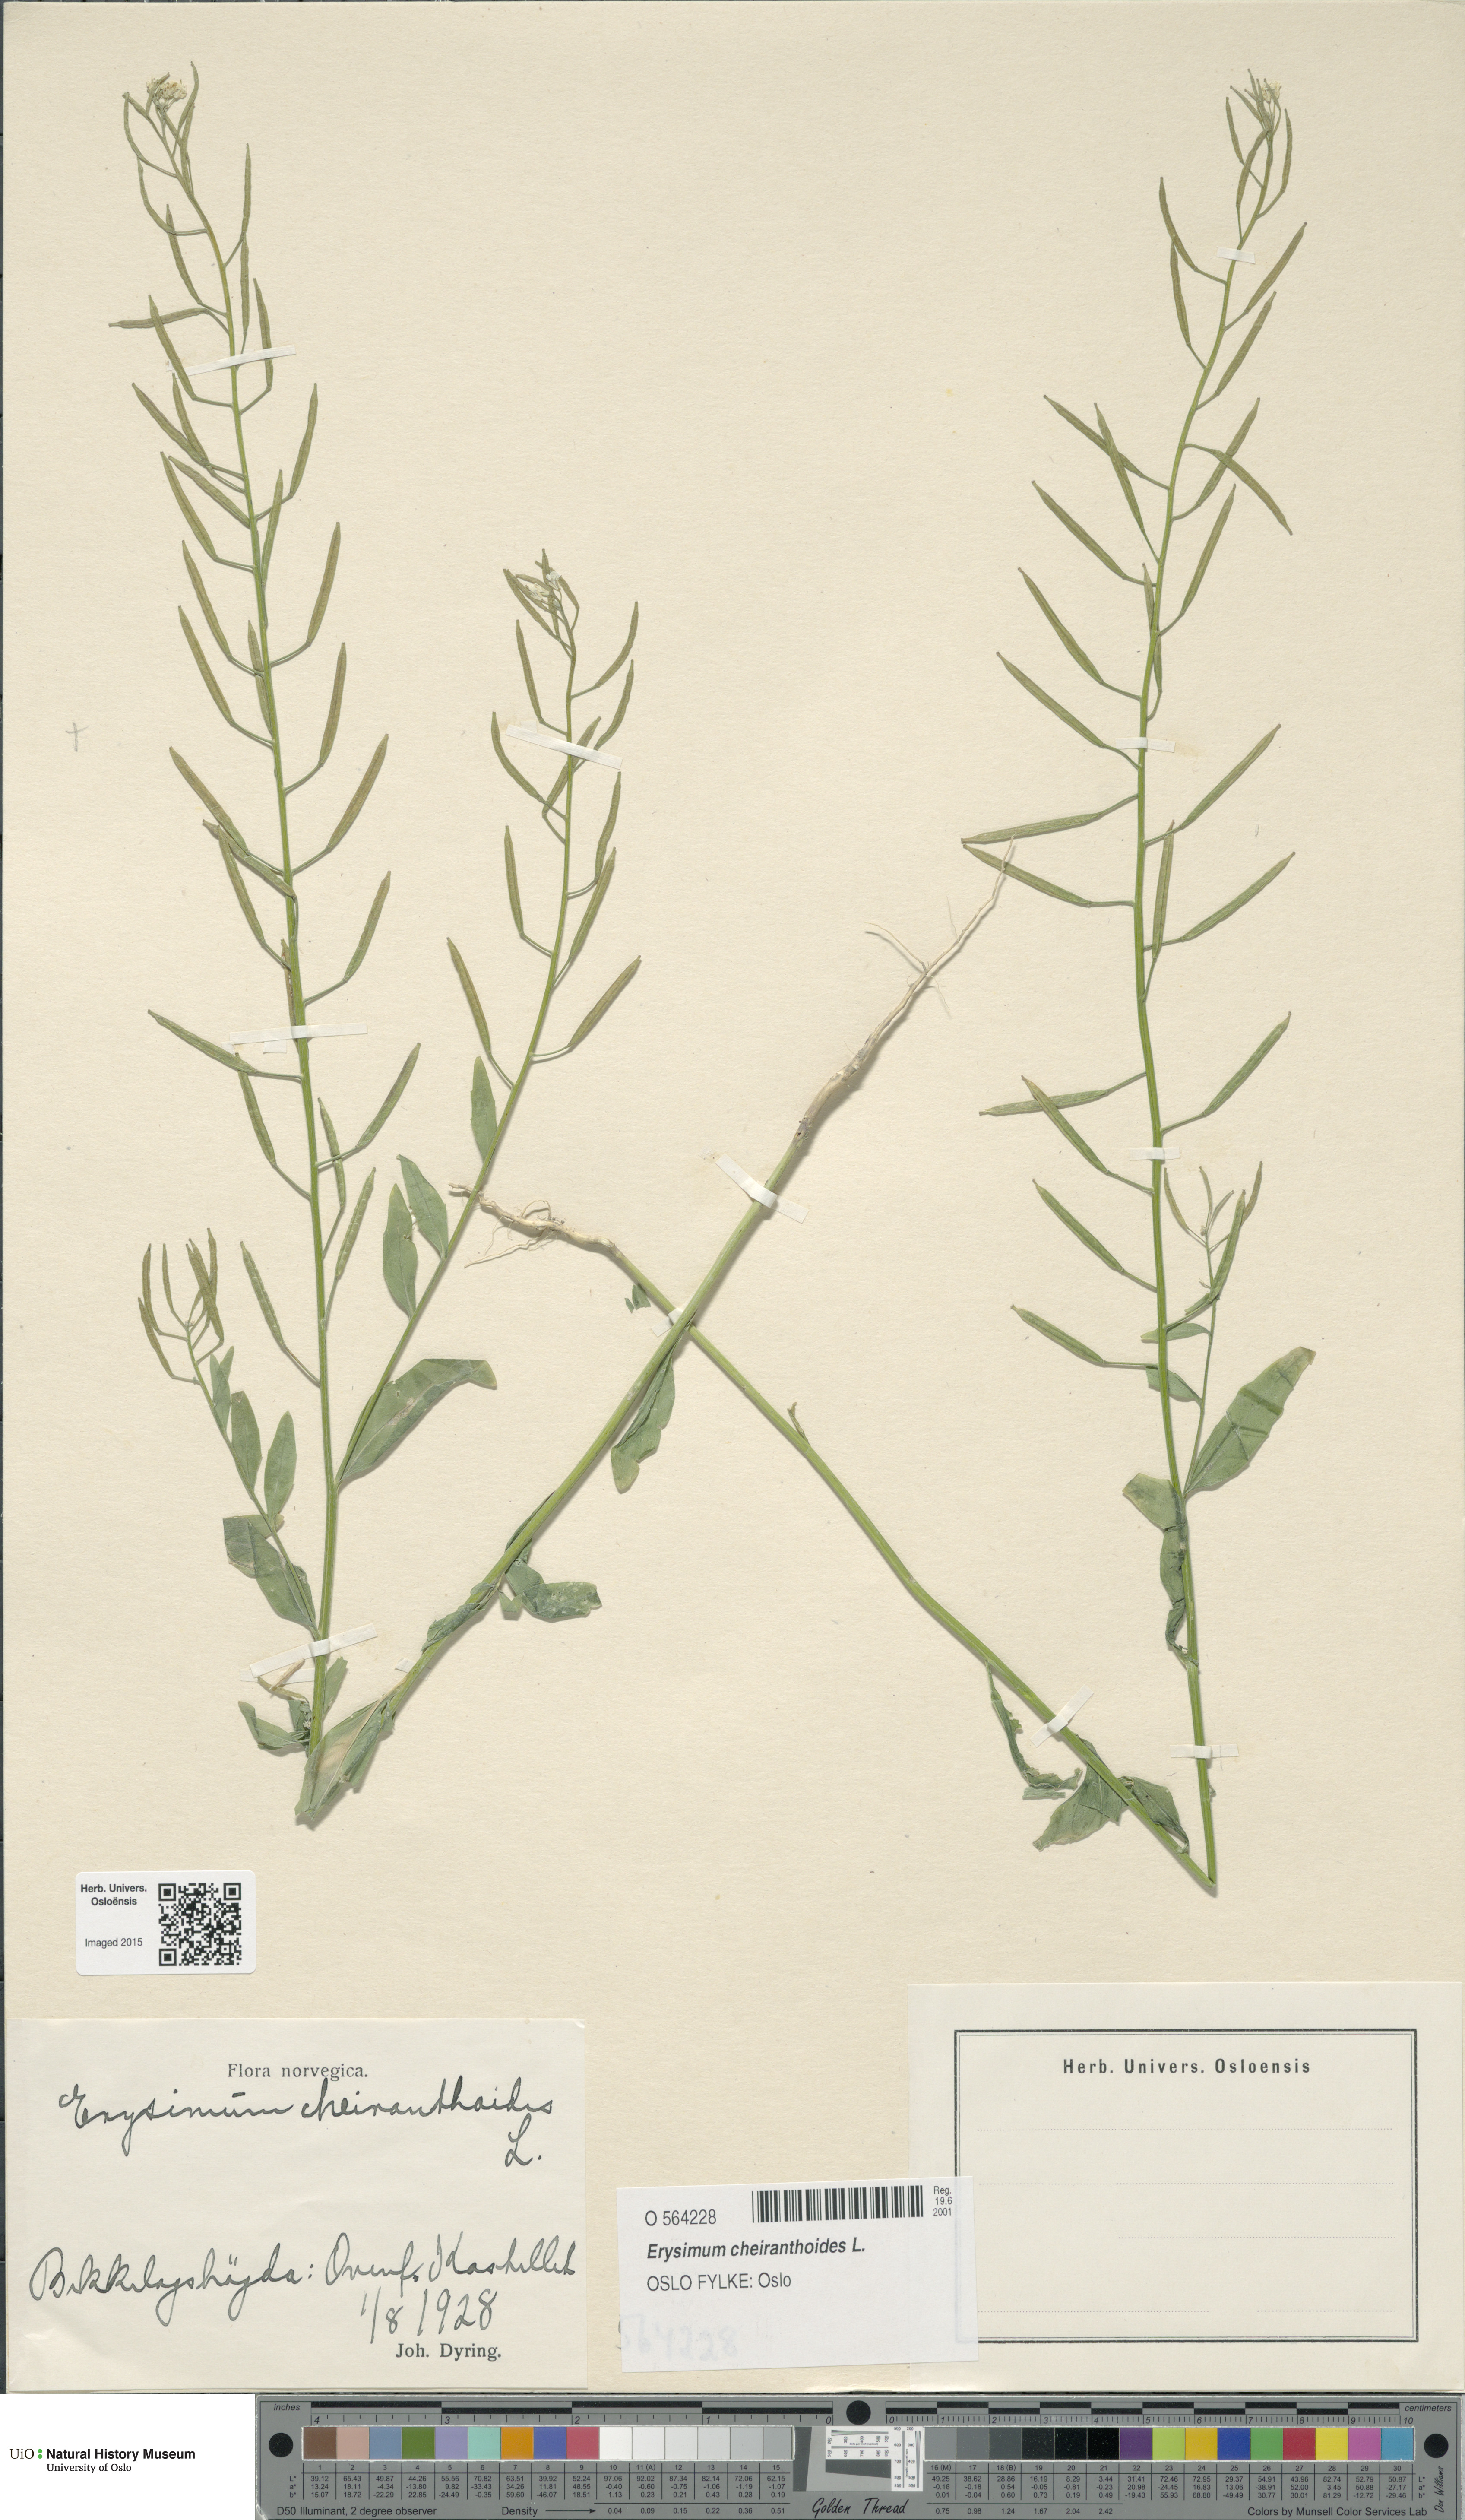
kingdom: Plantae
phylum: Tracheophyta
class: Magnoliopsida
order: Brassicales
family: Brassicaceae
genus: Erysimum
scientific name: Erysimum cheiranthoides
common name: Treacle mustard
